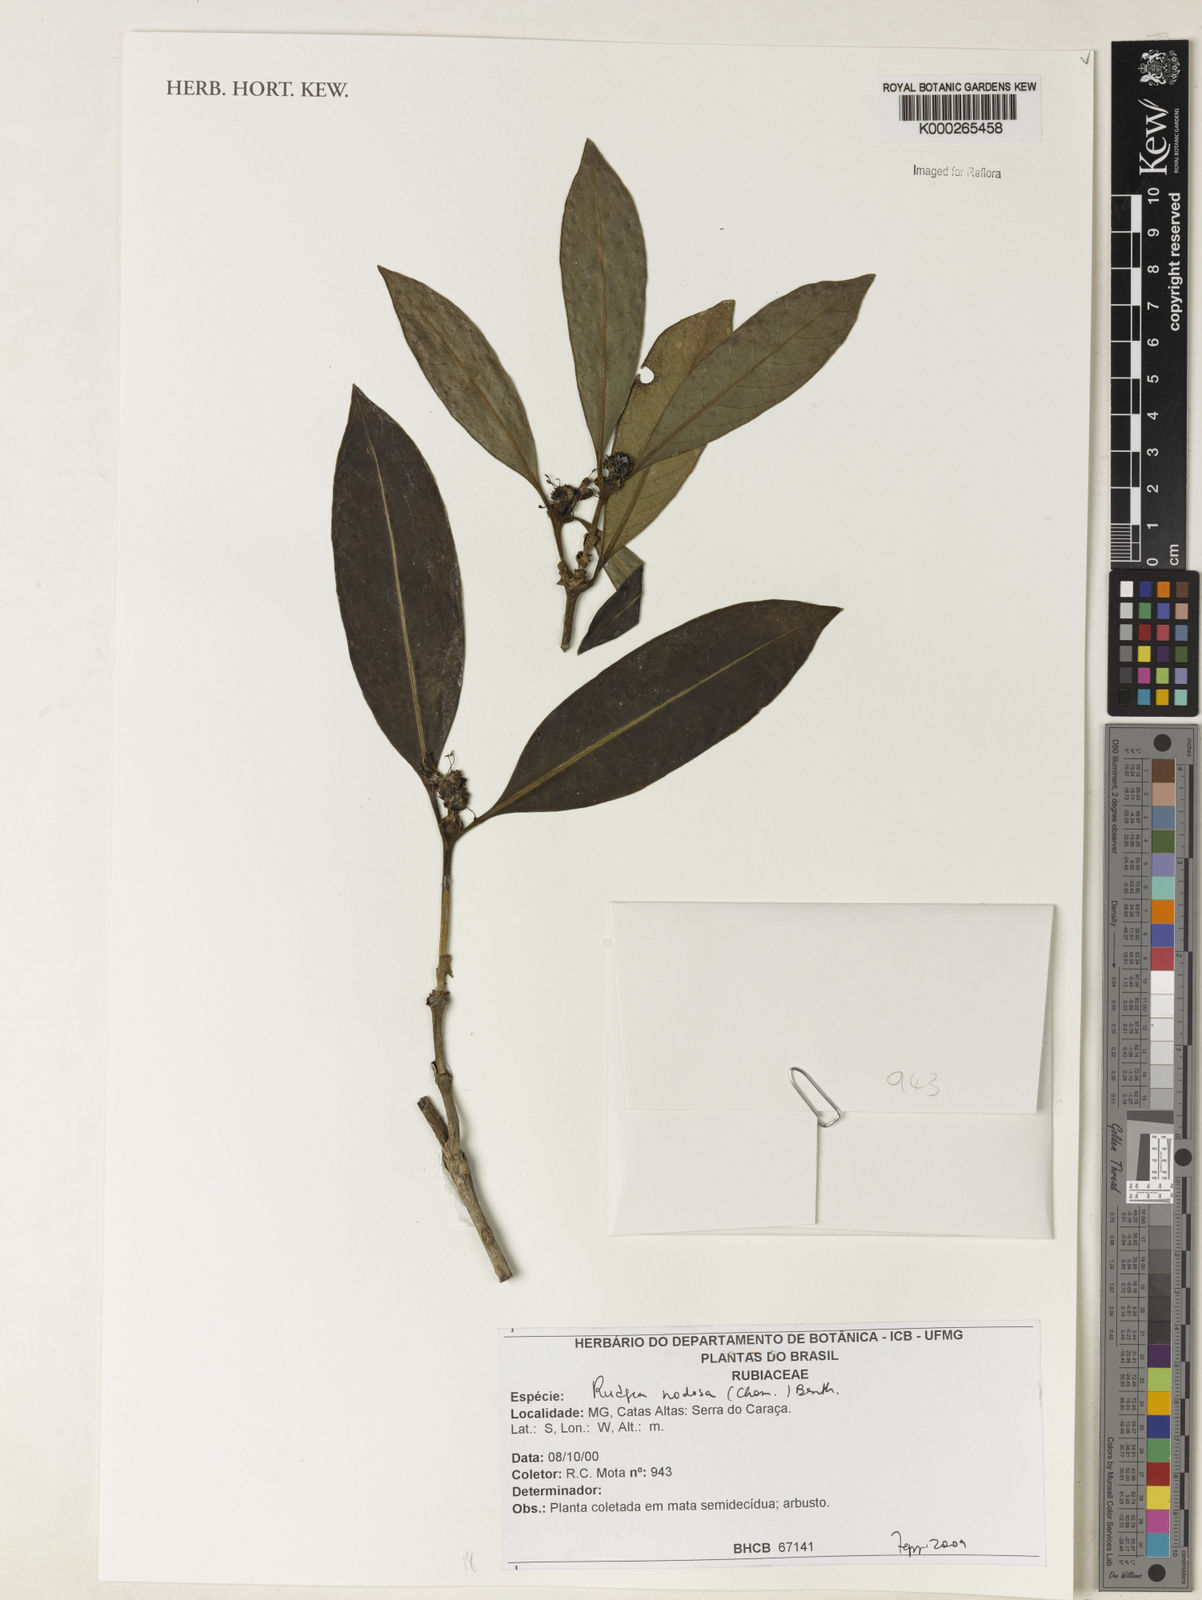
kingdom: Plantae
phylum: Tracheophyta
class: Magnoliopsida
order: Gentianales
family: Rubiaceae
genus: Rudgea
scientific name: Rudgea nodosa
